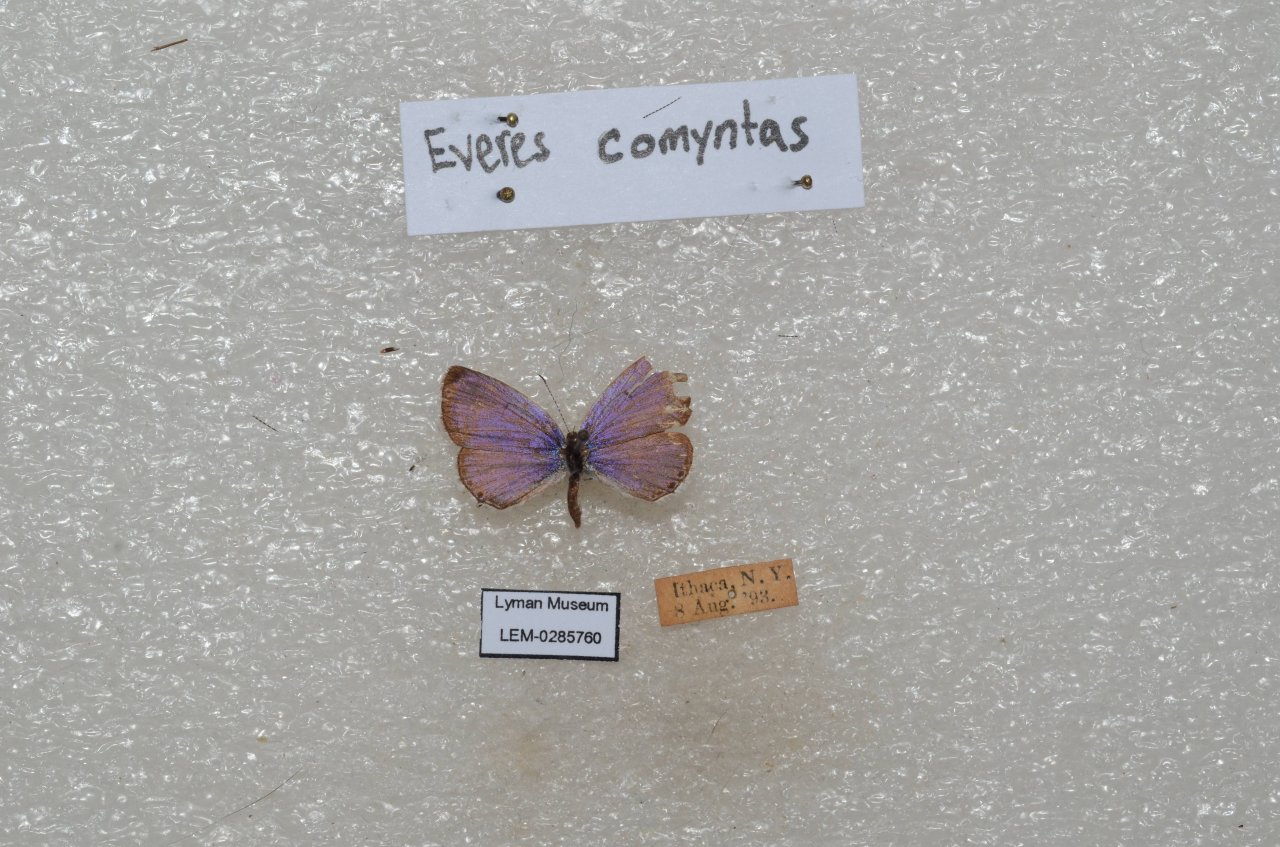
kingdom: Animalia
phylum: Arthropoda
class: Insecta
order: Lepidoptera
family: Lycaenidae
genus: Elkalyce
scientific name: Elkalyce comyntas
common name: Eastern Tailed-Blue
